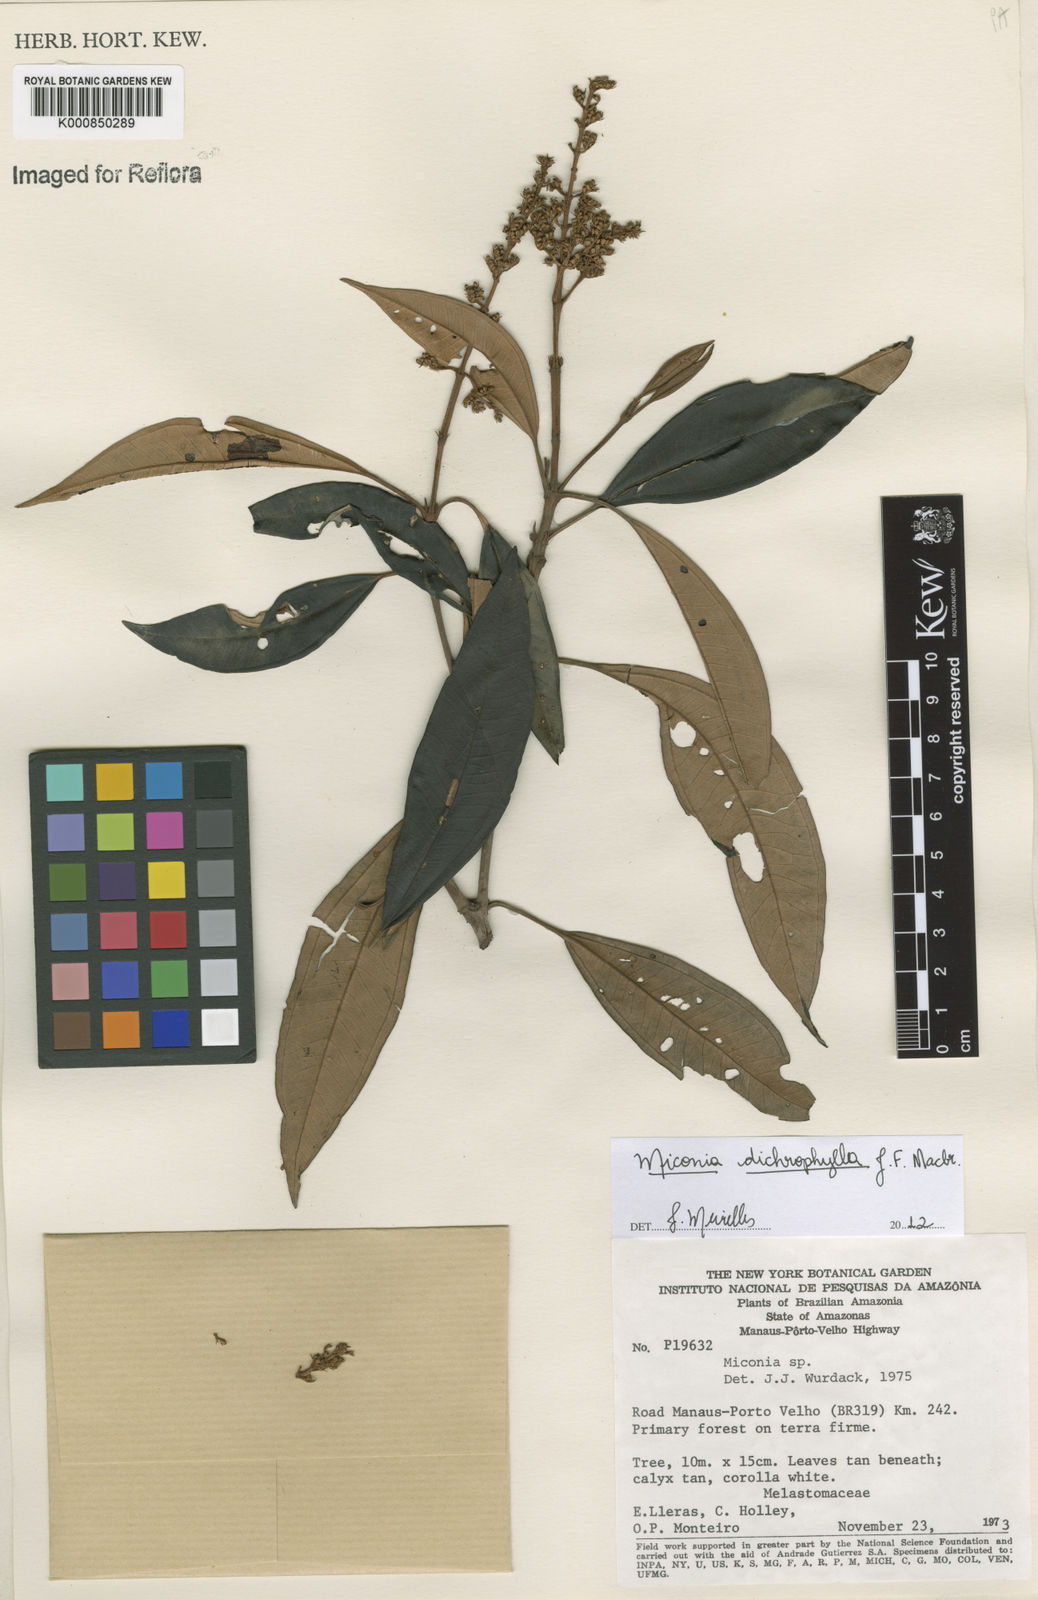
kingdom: Plantae
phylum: Tracheophyta
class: Magnoliopsida
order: Myrtales
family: Melastomataceae
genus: Miconia
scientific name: Miconia
